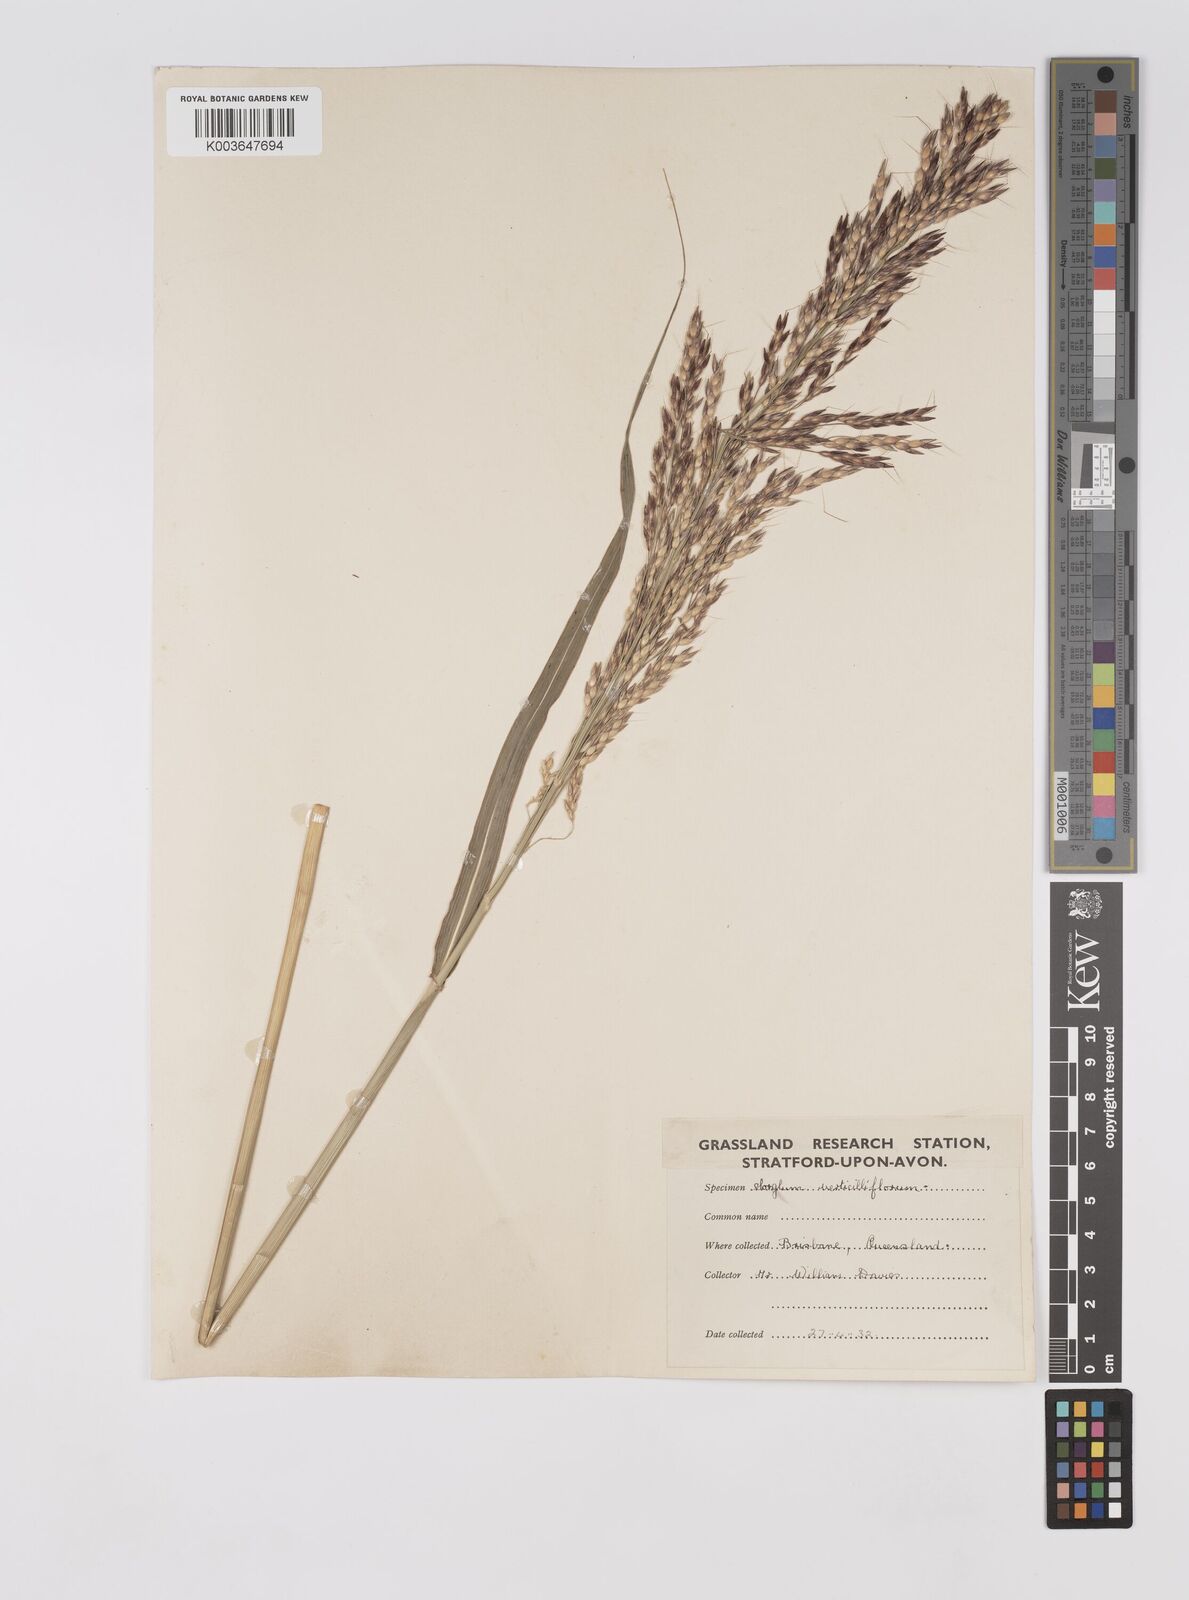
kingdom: Plantae
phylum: Tracheophyta
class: Liliopsida
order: Poales
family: Poaceae
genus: Sorghum
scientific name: Sorghum arundinaceum
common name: Sorghum
